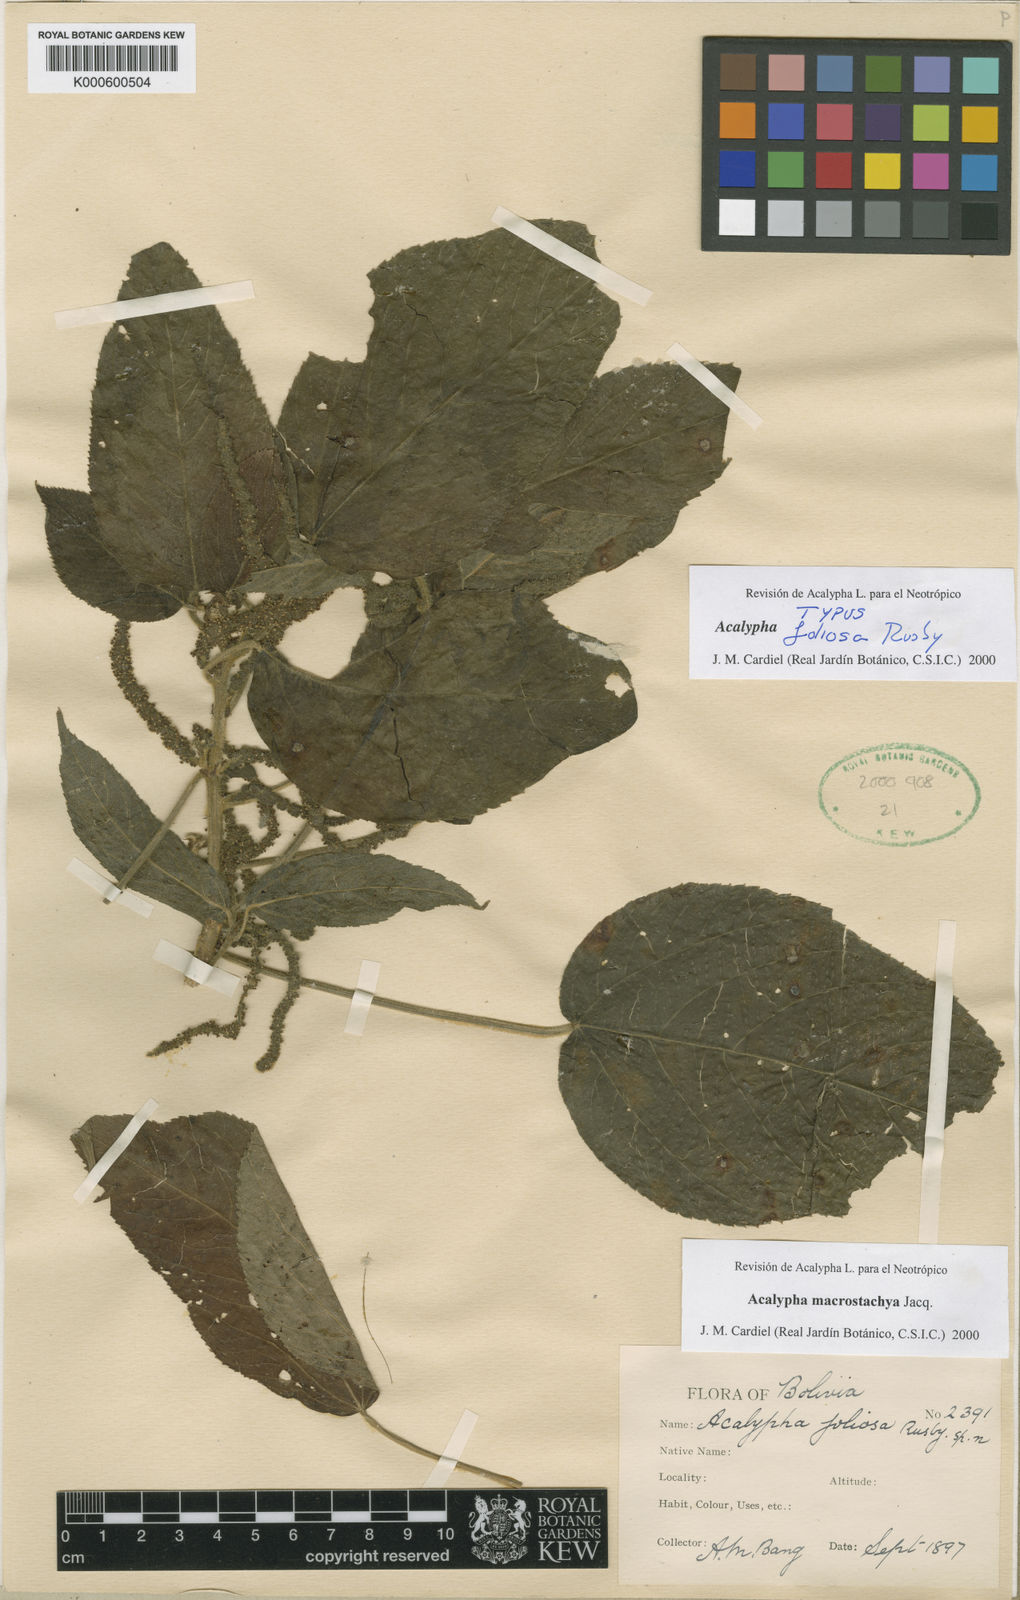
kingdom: Plantae
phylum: Tracheophyta
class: Magnoliopsida
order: Malpighiales
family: Euphorbiaceae
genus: Acalypha
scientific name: Acalypha macrostachya
